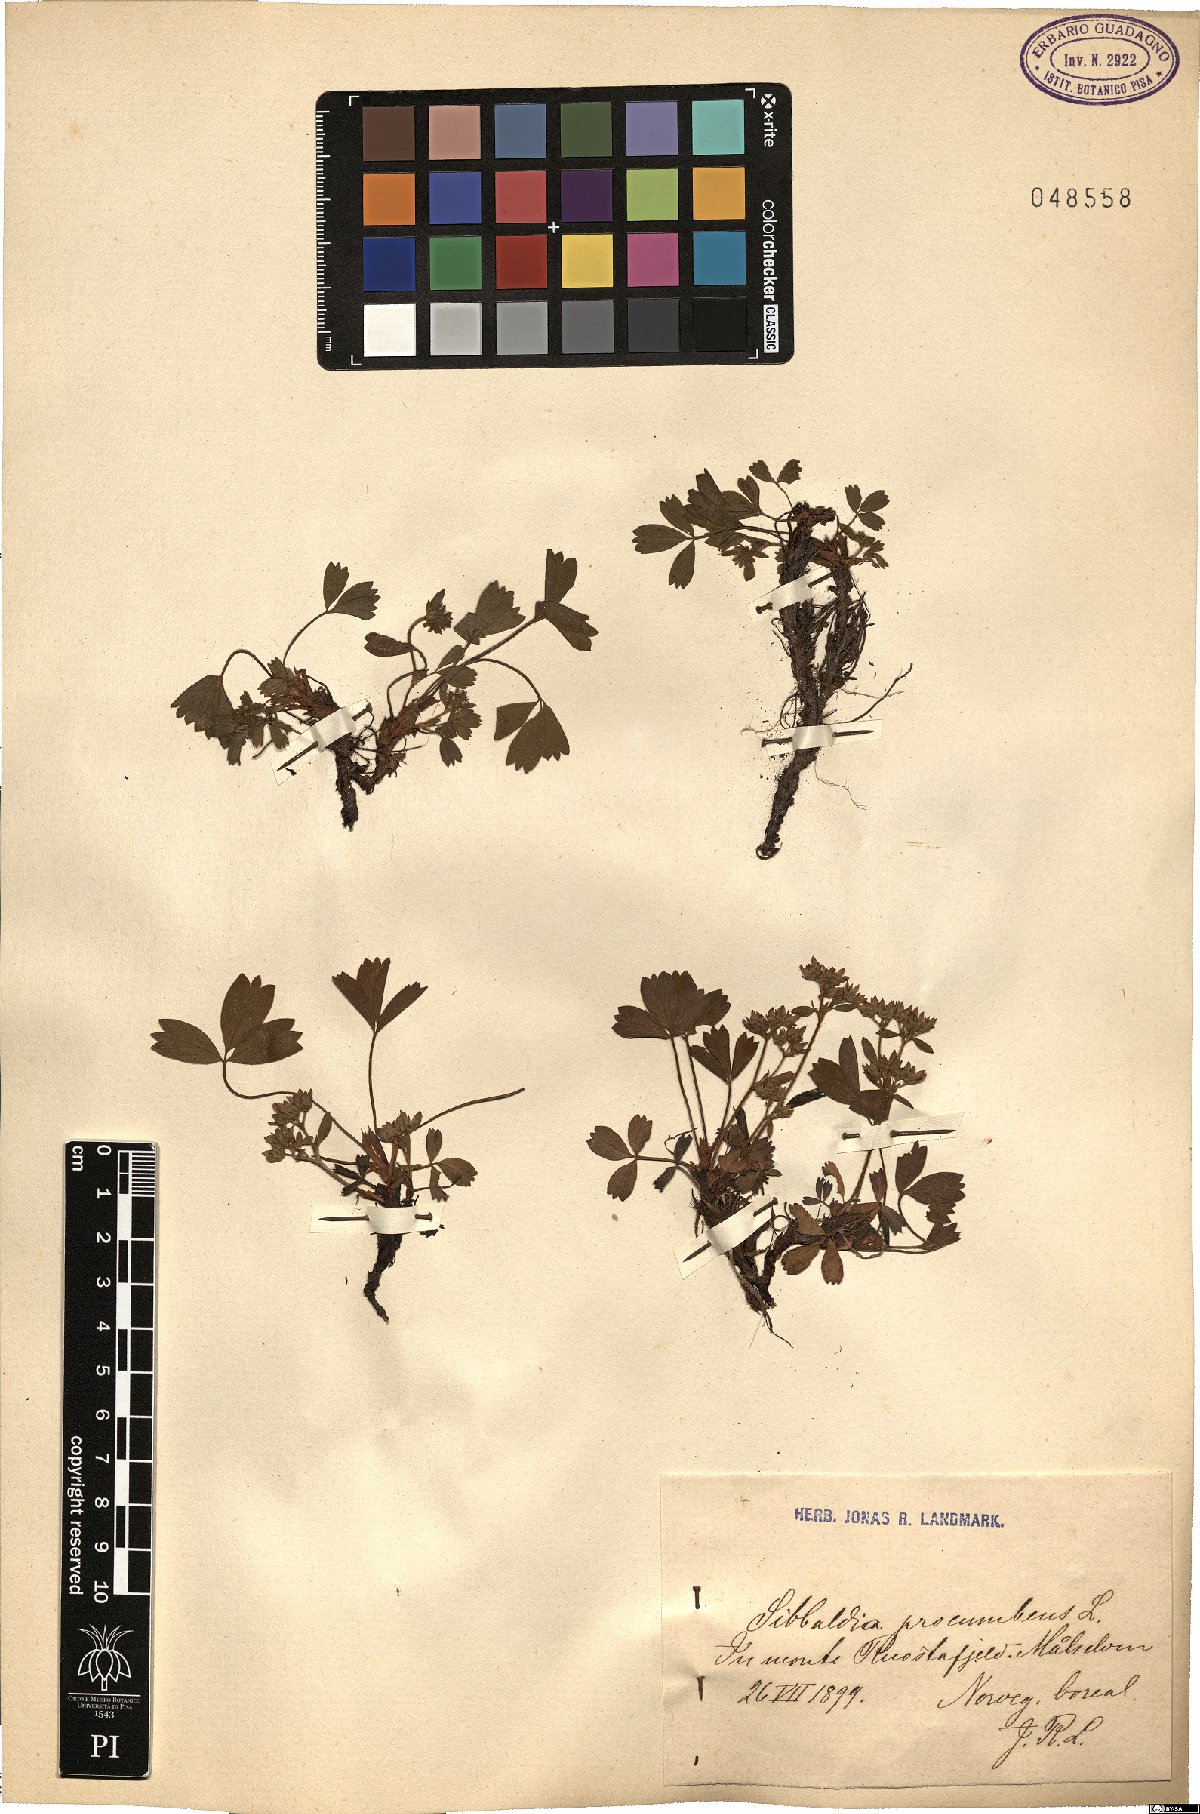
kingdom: Plantae
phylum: Tracheophyta
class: Magnoliopsida
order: Rosales
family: Rosaceae
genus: Sibbaldia
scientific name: Sibbaldia procumbens
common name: Creeping sibbaldia
